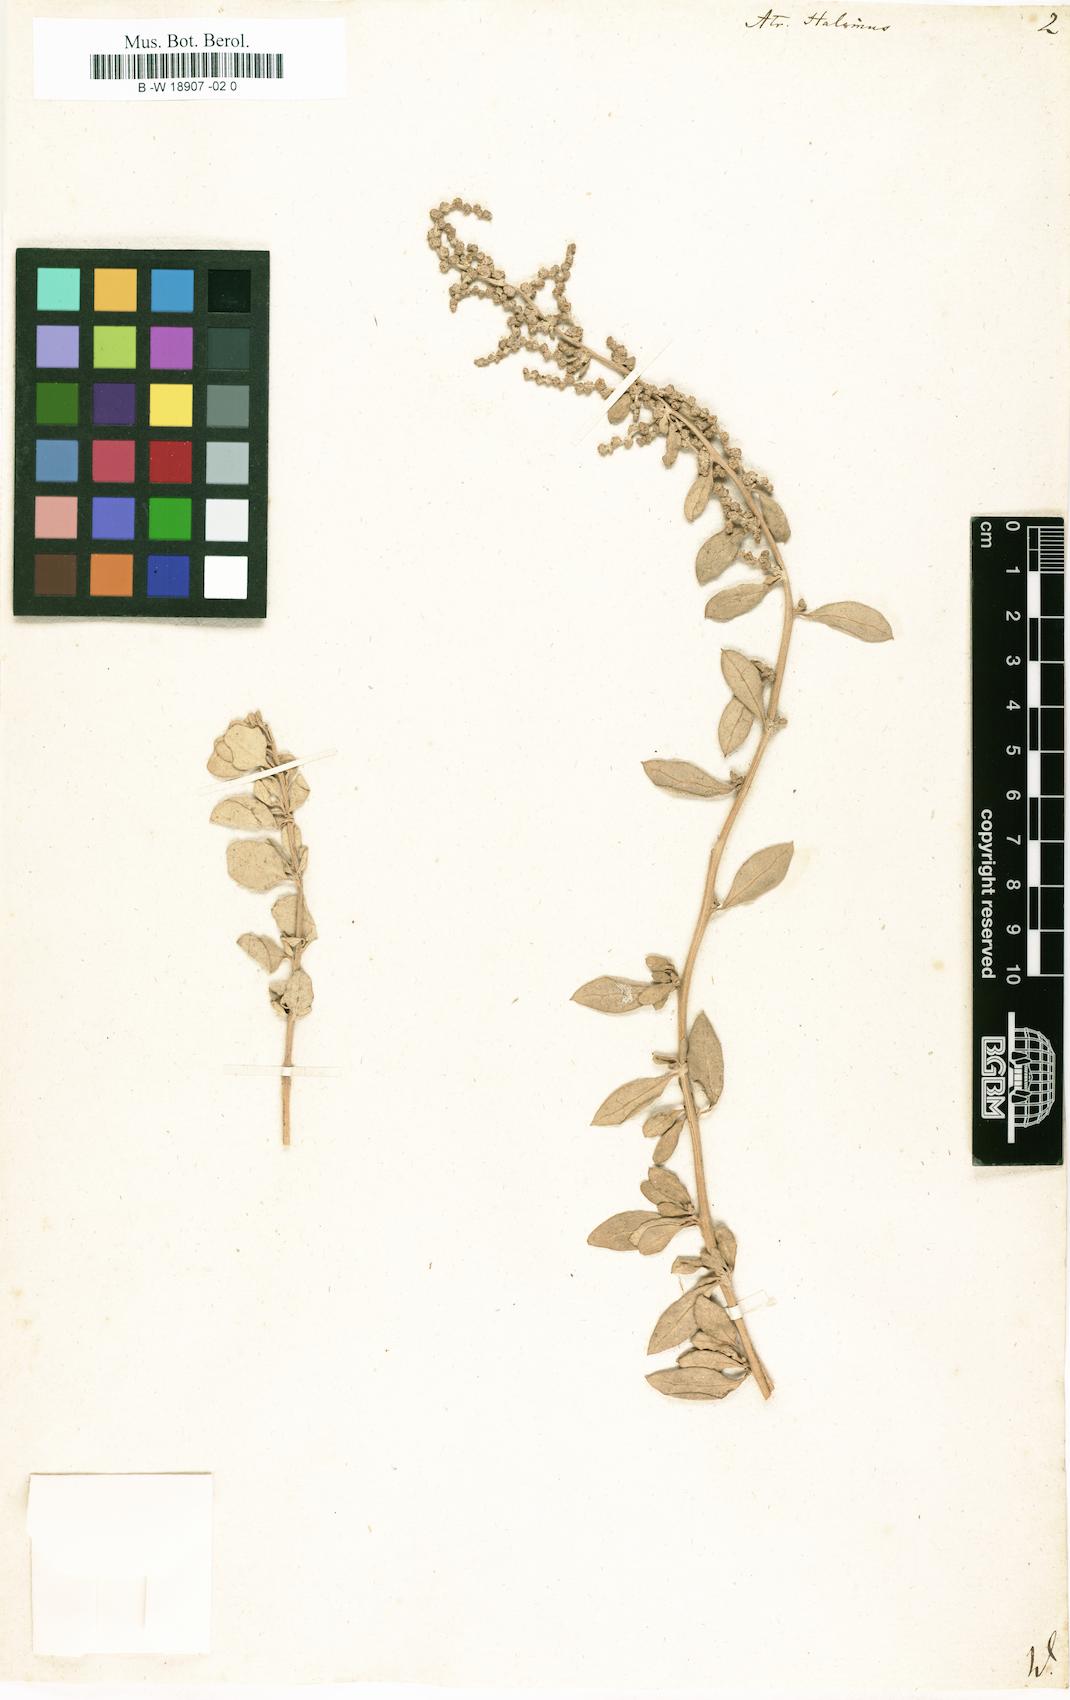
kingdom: Plantae
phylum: Tracheophyta
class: Magnoliopsida
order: Caryophyllales
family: Amaranthaceae
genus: Atriplex
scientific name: Atriplex halimus
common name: Shrubby orache
